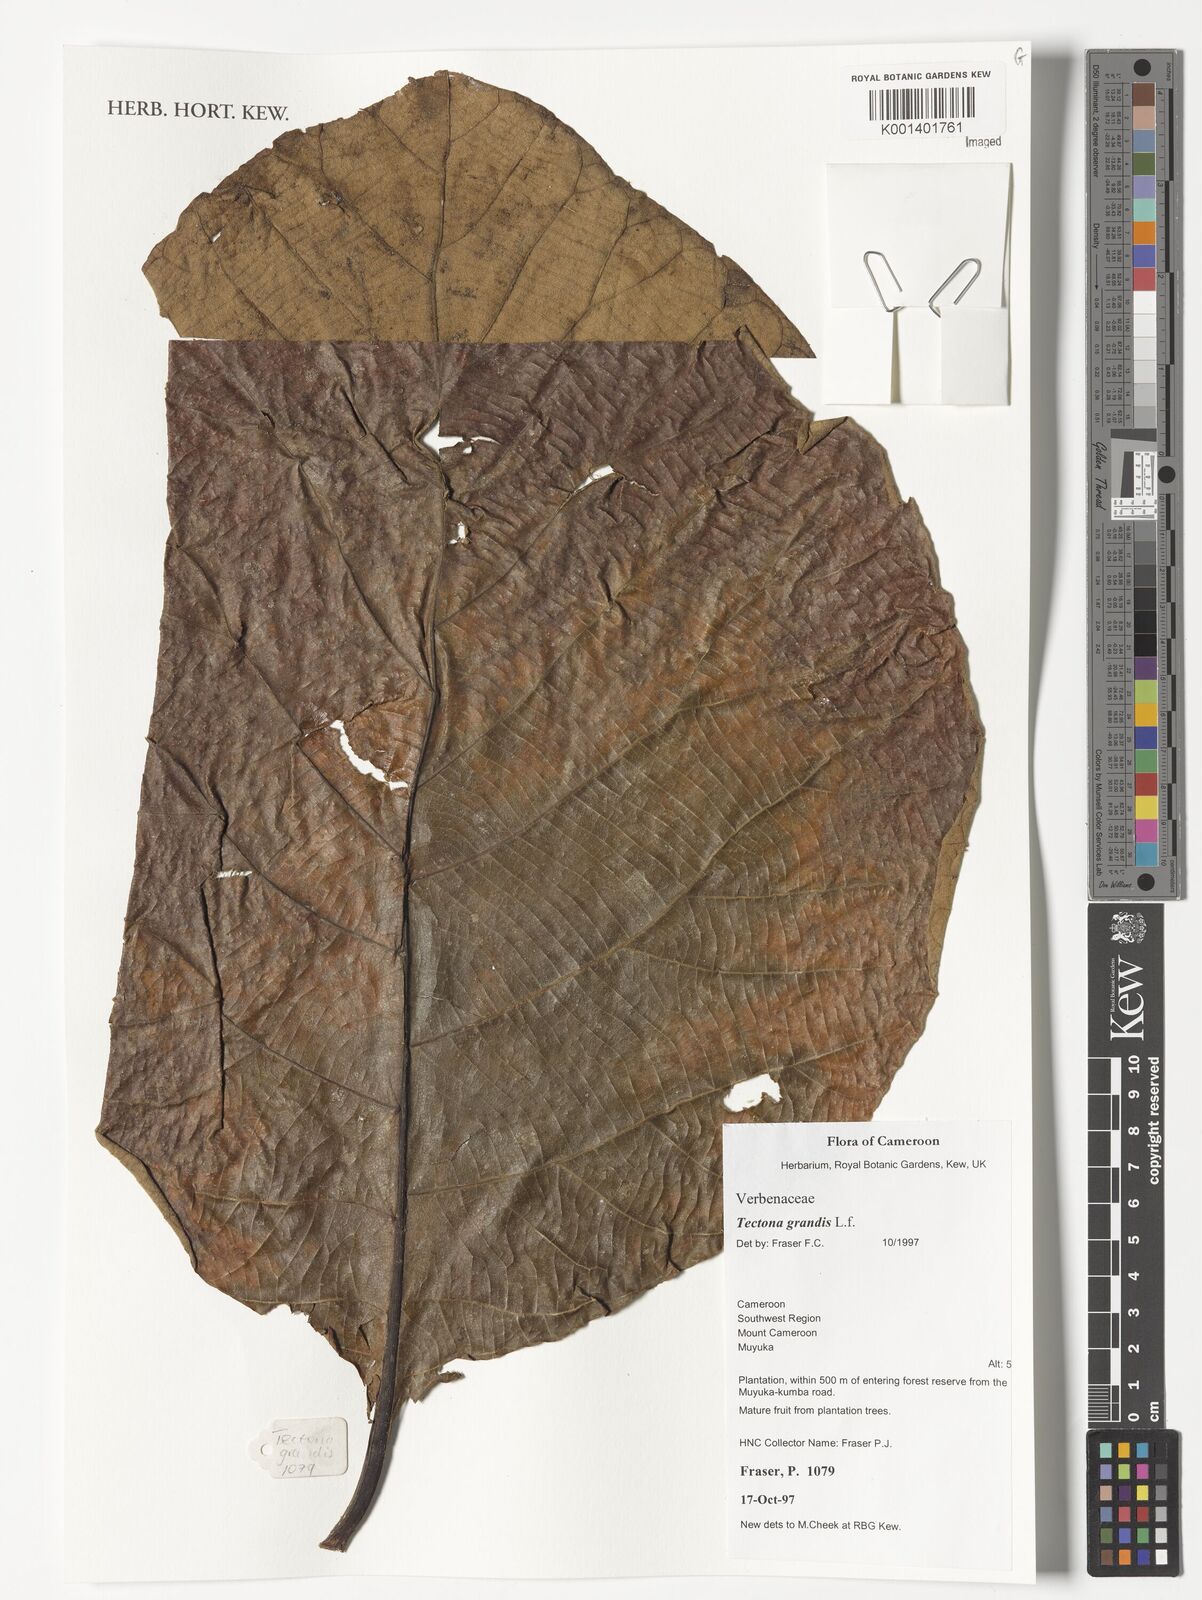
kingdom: Plantae
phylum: Tracheophyta
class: Magnoliopsida
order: Lamiales
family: Lamiaceae
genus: Tectona
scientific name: Tectona grandis
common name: Teak
